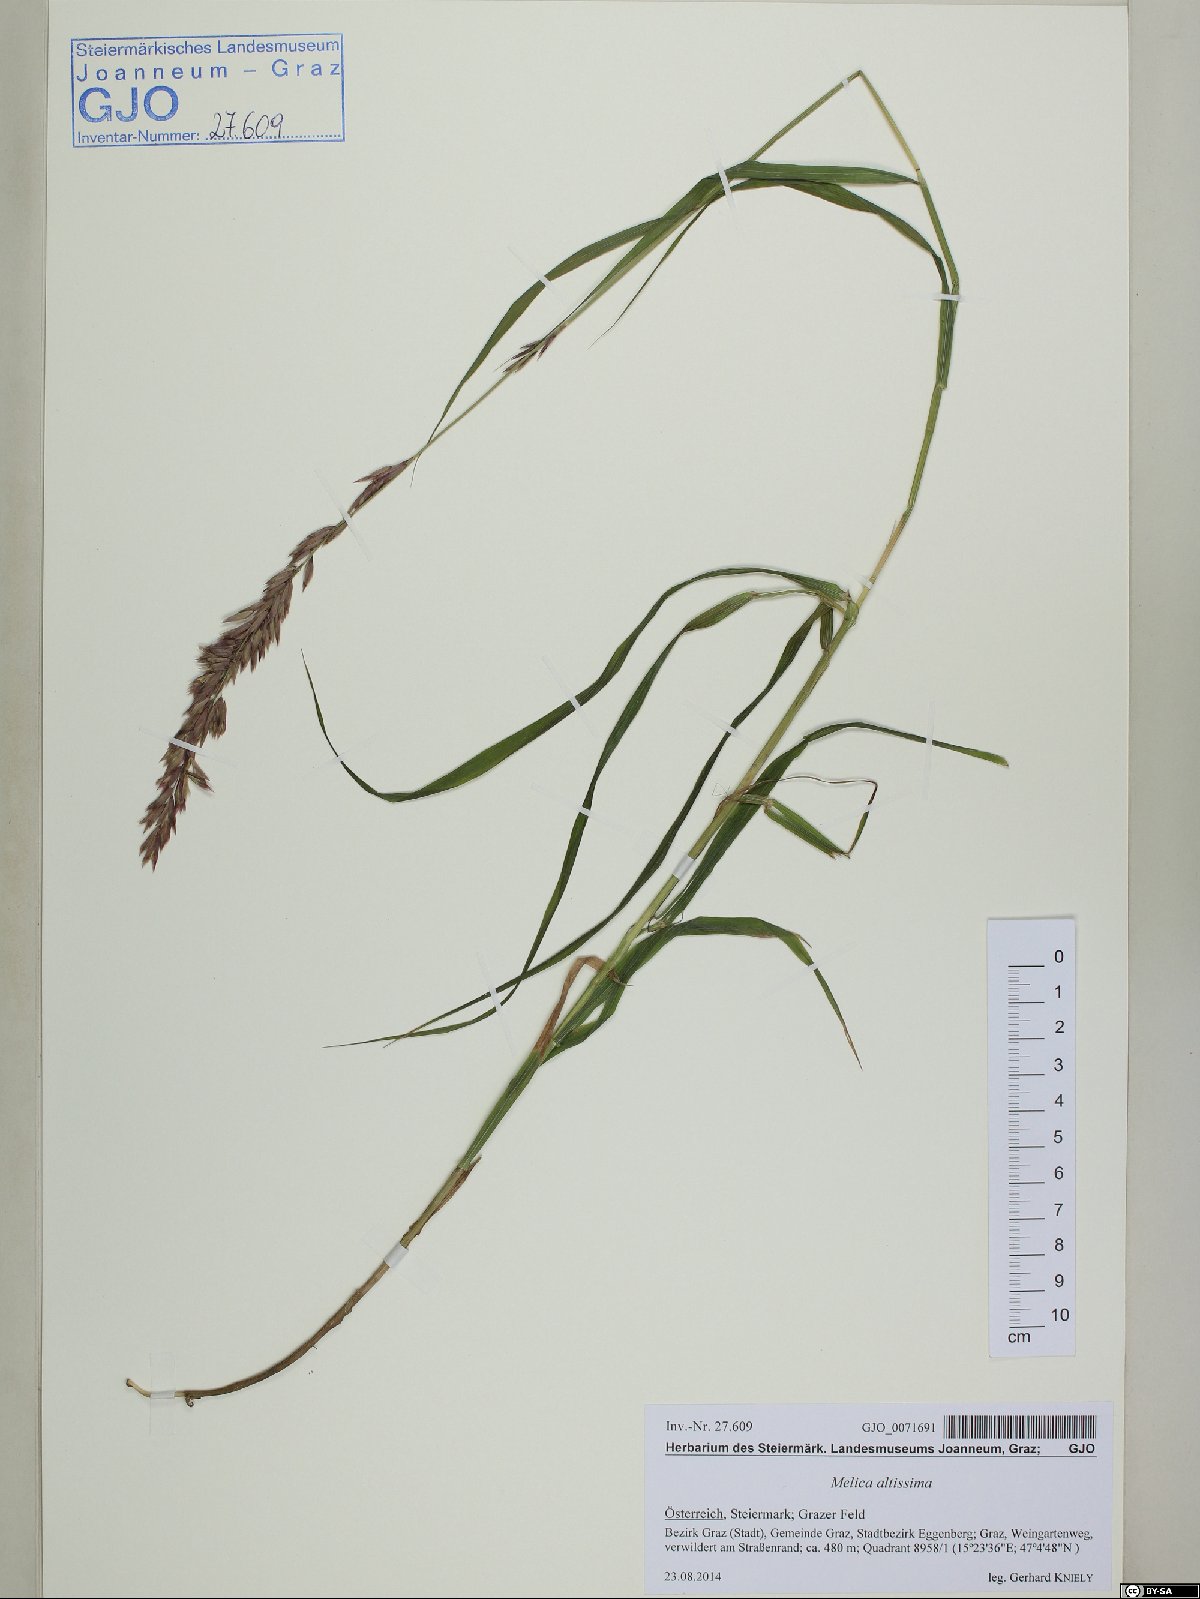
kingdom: Plantae
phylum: Tracheophyta
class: Liliopsida
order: Poales
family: Poaceae
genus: Melica
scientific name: Melica altissima
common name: Siberian melicgrass
